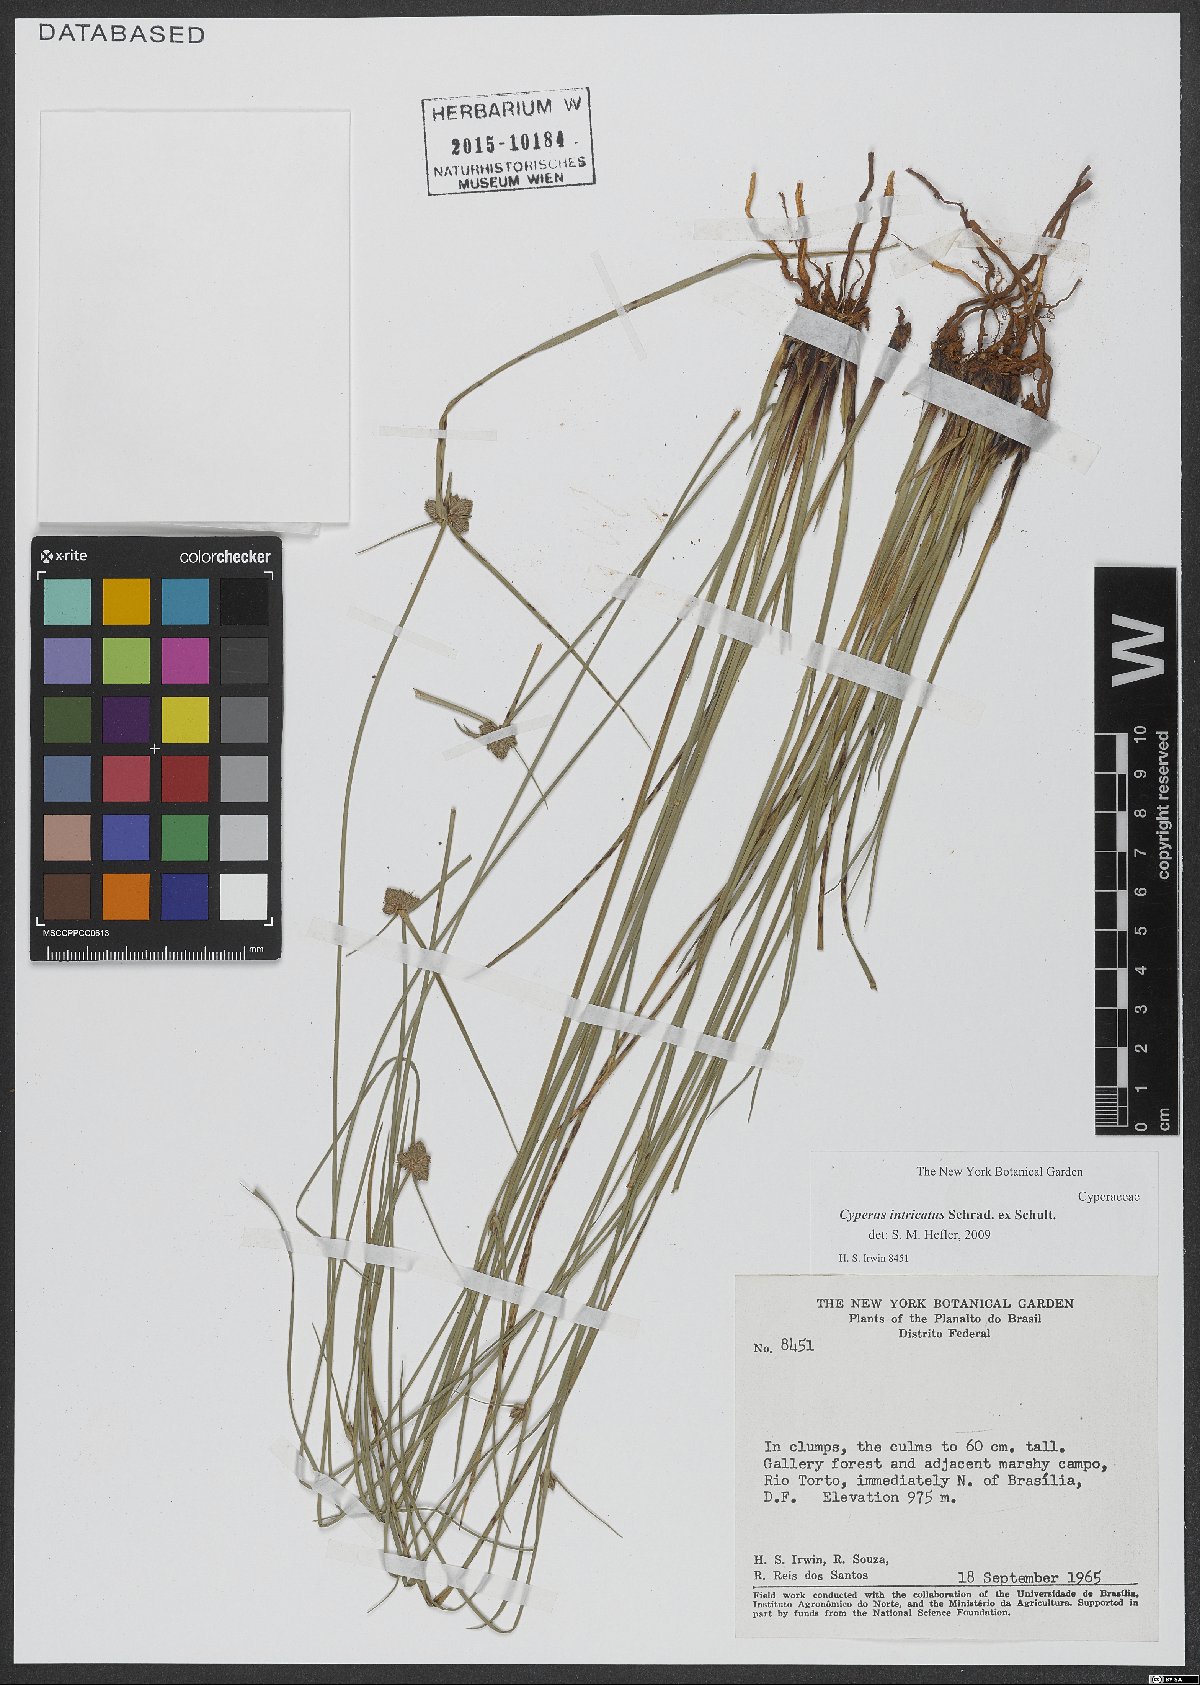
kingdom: Plantae
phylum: Tracheophyta
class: Liliopsida
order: Poales
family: Cyperaceae
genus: Cyperus
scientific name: Cyperus intricatus
